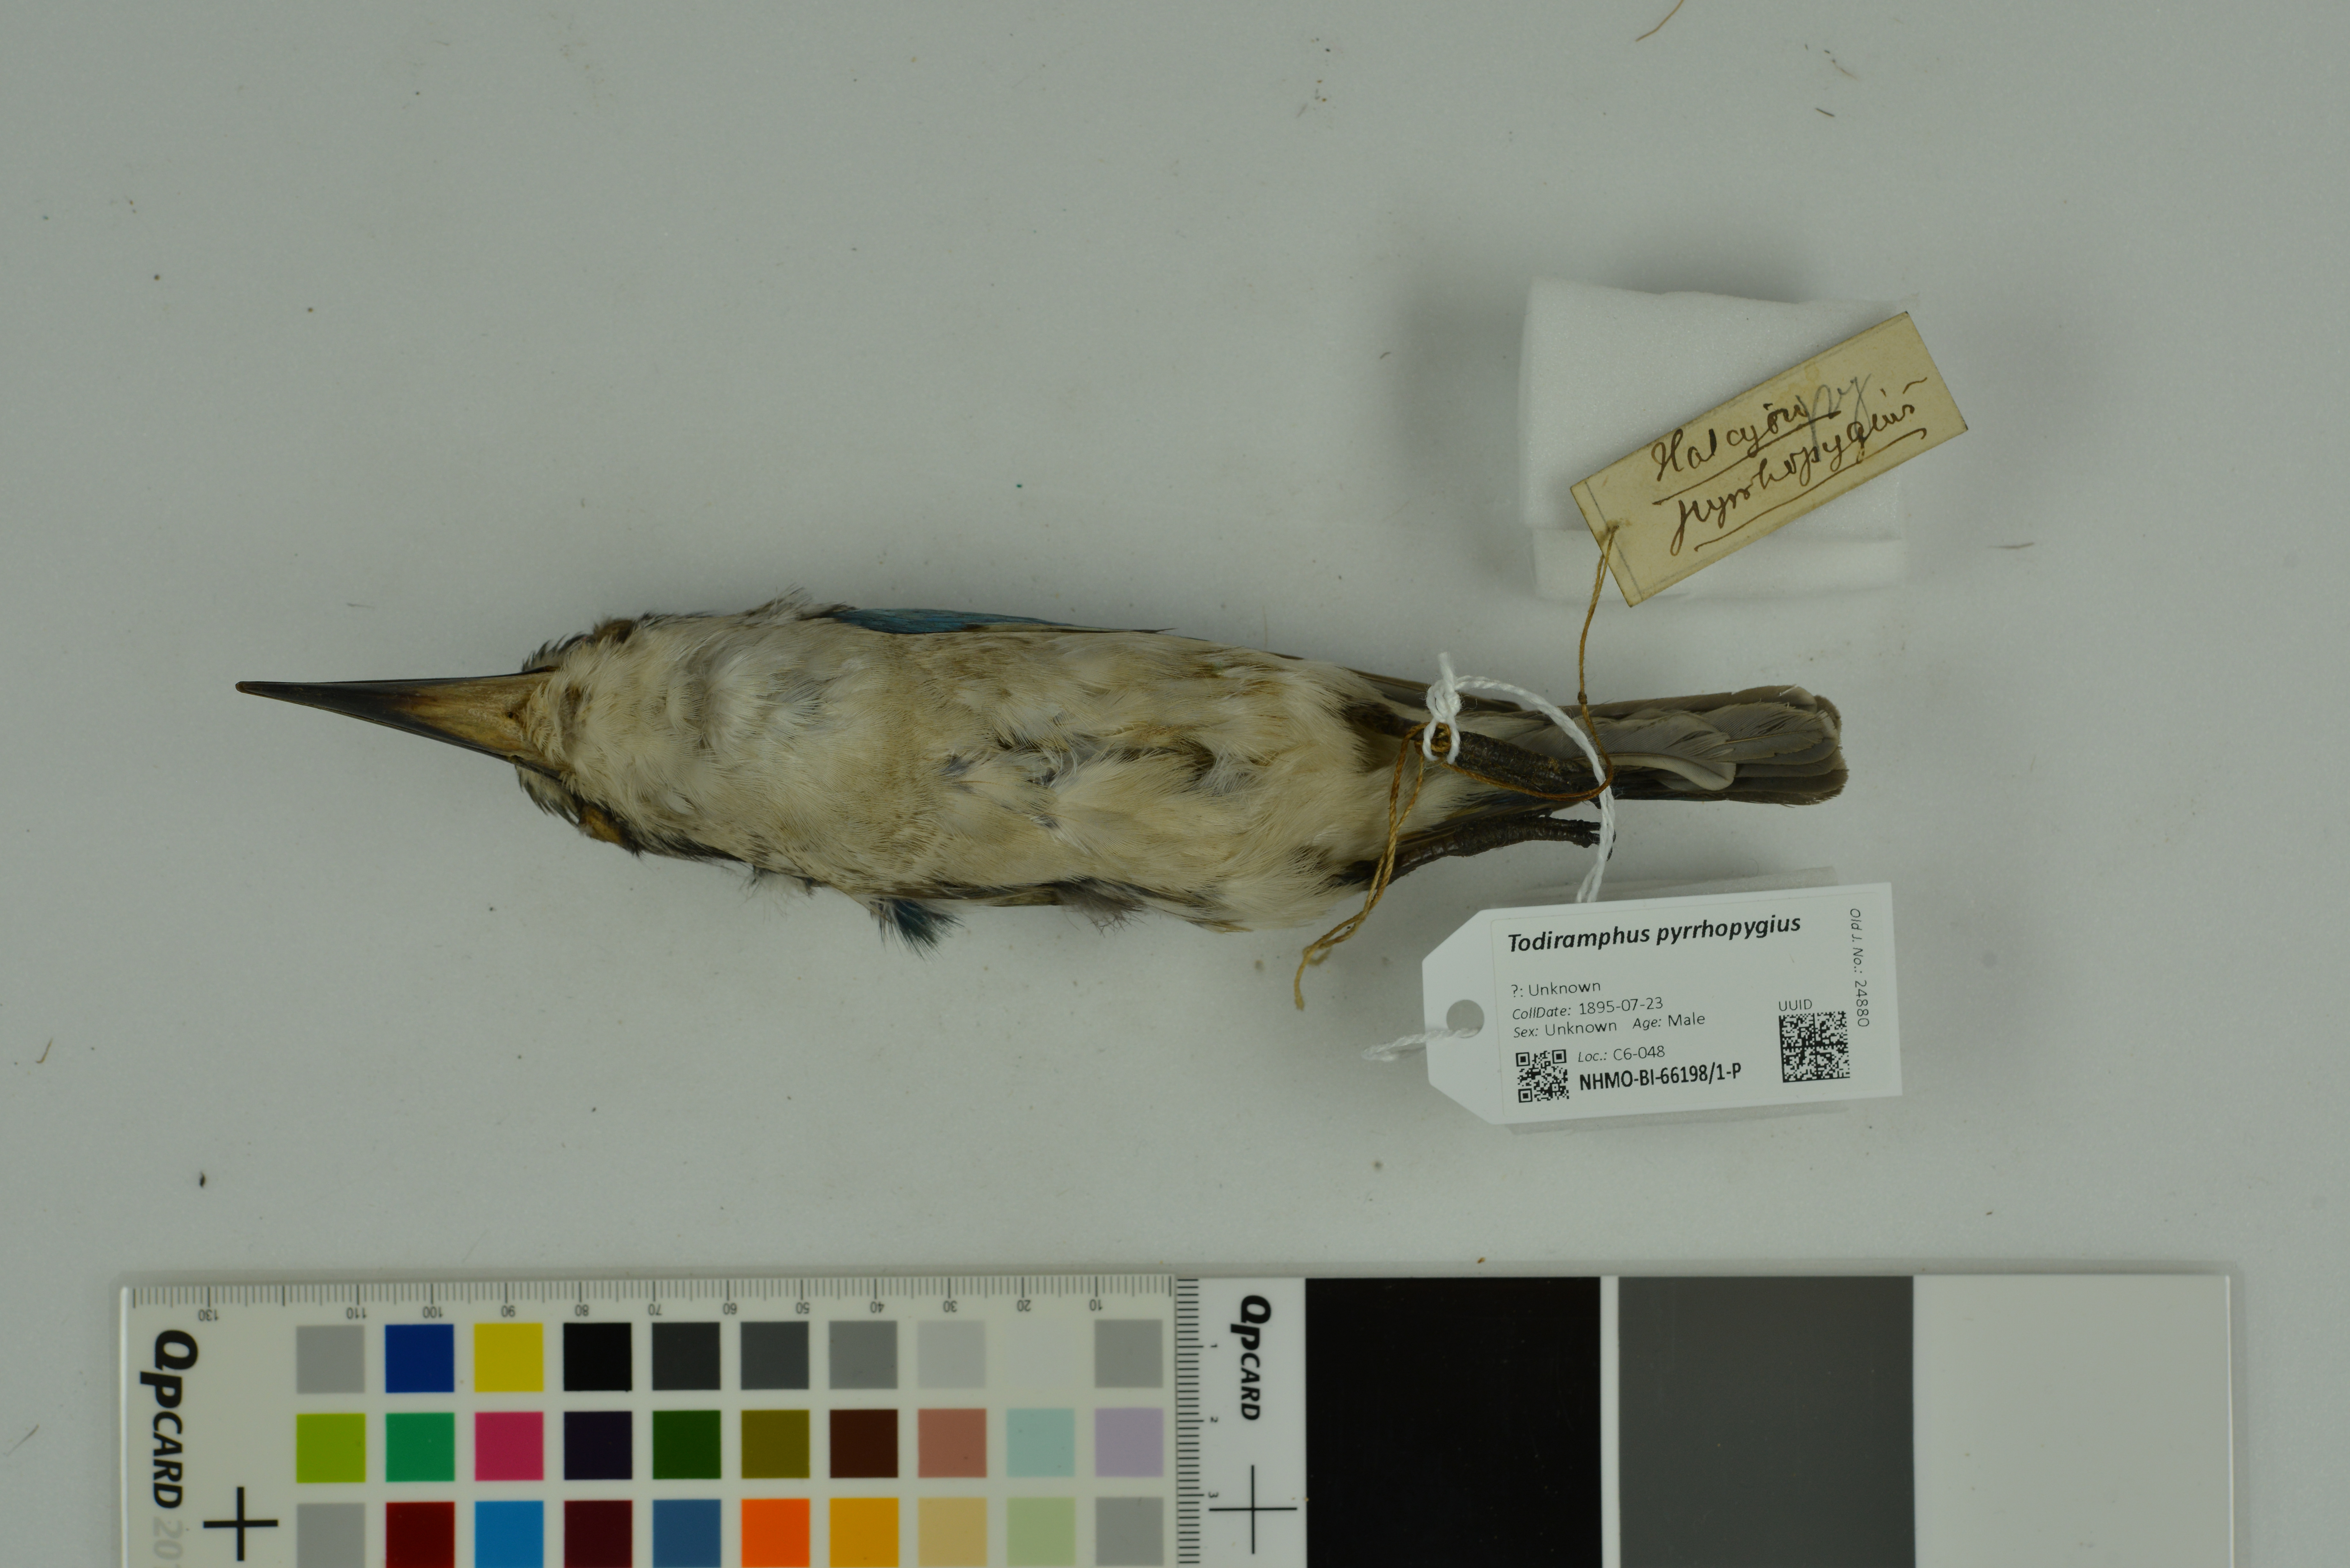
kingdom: Animalia
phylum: Chordata
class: Aves
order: Coraciiformes
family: Alcedinidae
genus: Todiramphus
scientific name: Todiramphus pyrrhopygius
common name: Red-backed kingfisher
